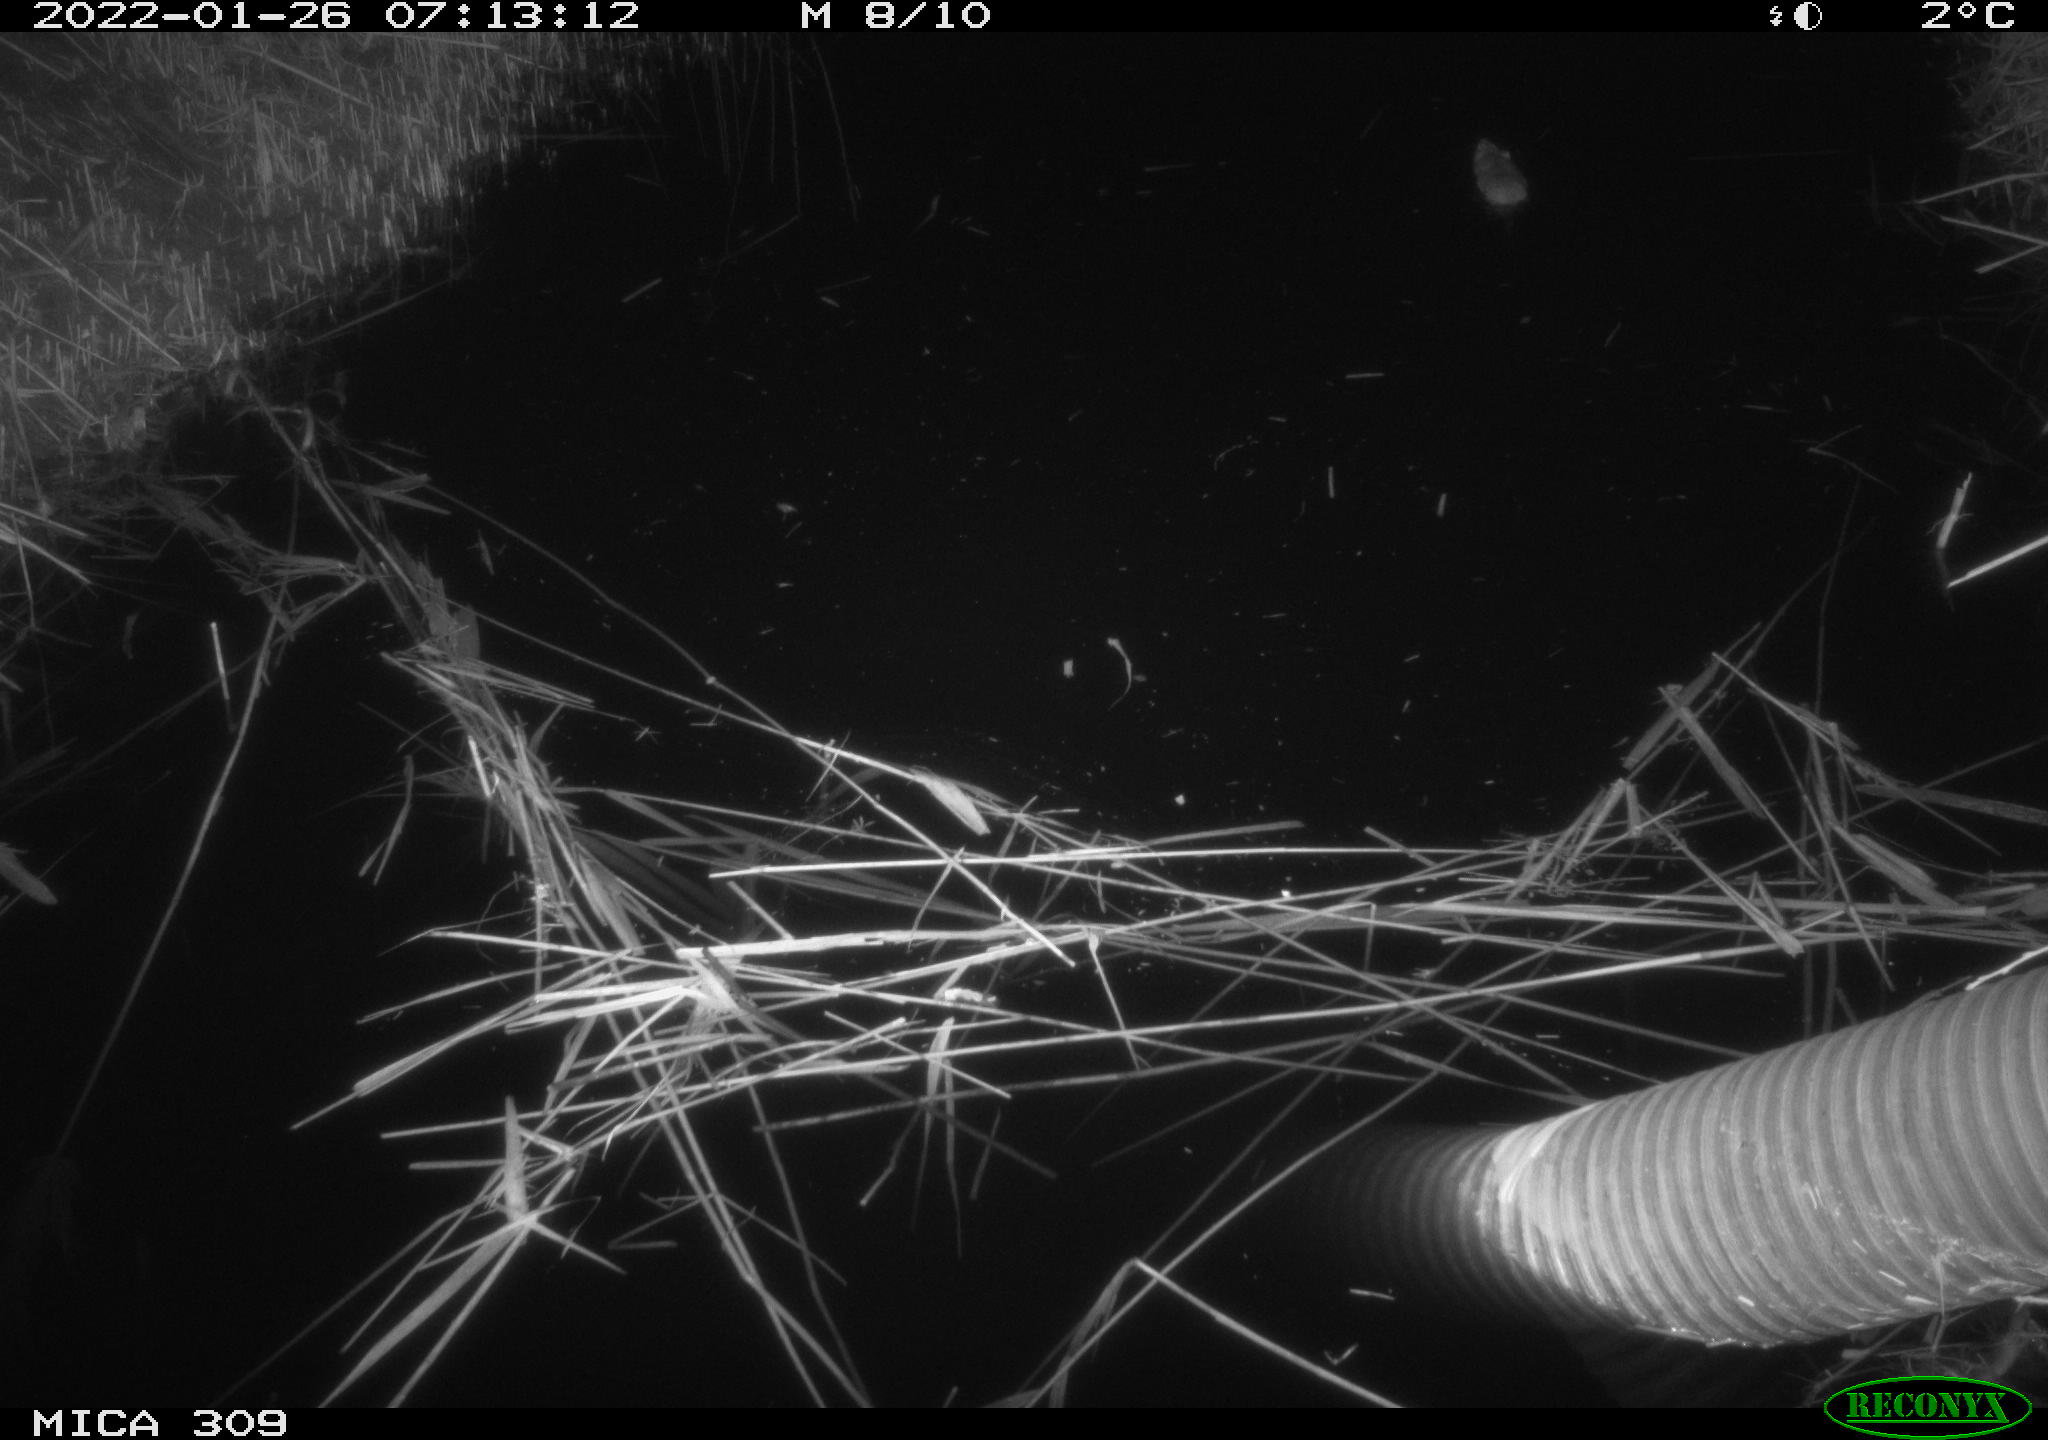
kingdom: Animalia
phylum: Chordata
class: Mammalia
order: Rodentia
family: Muridae
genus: Rattus
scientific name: Rattus norvegicus
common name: Brown rat
